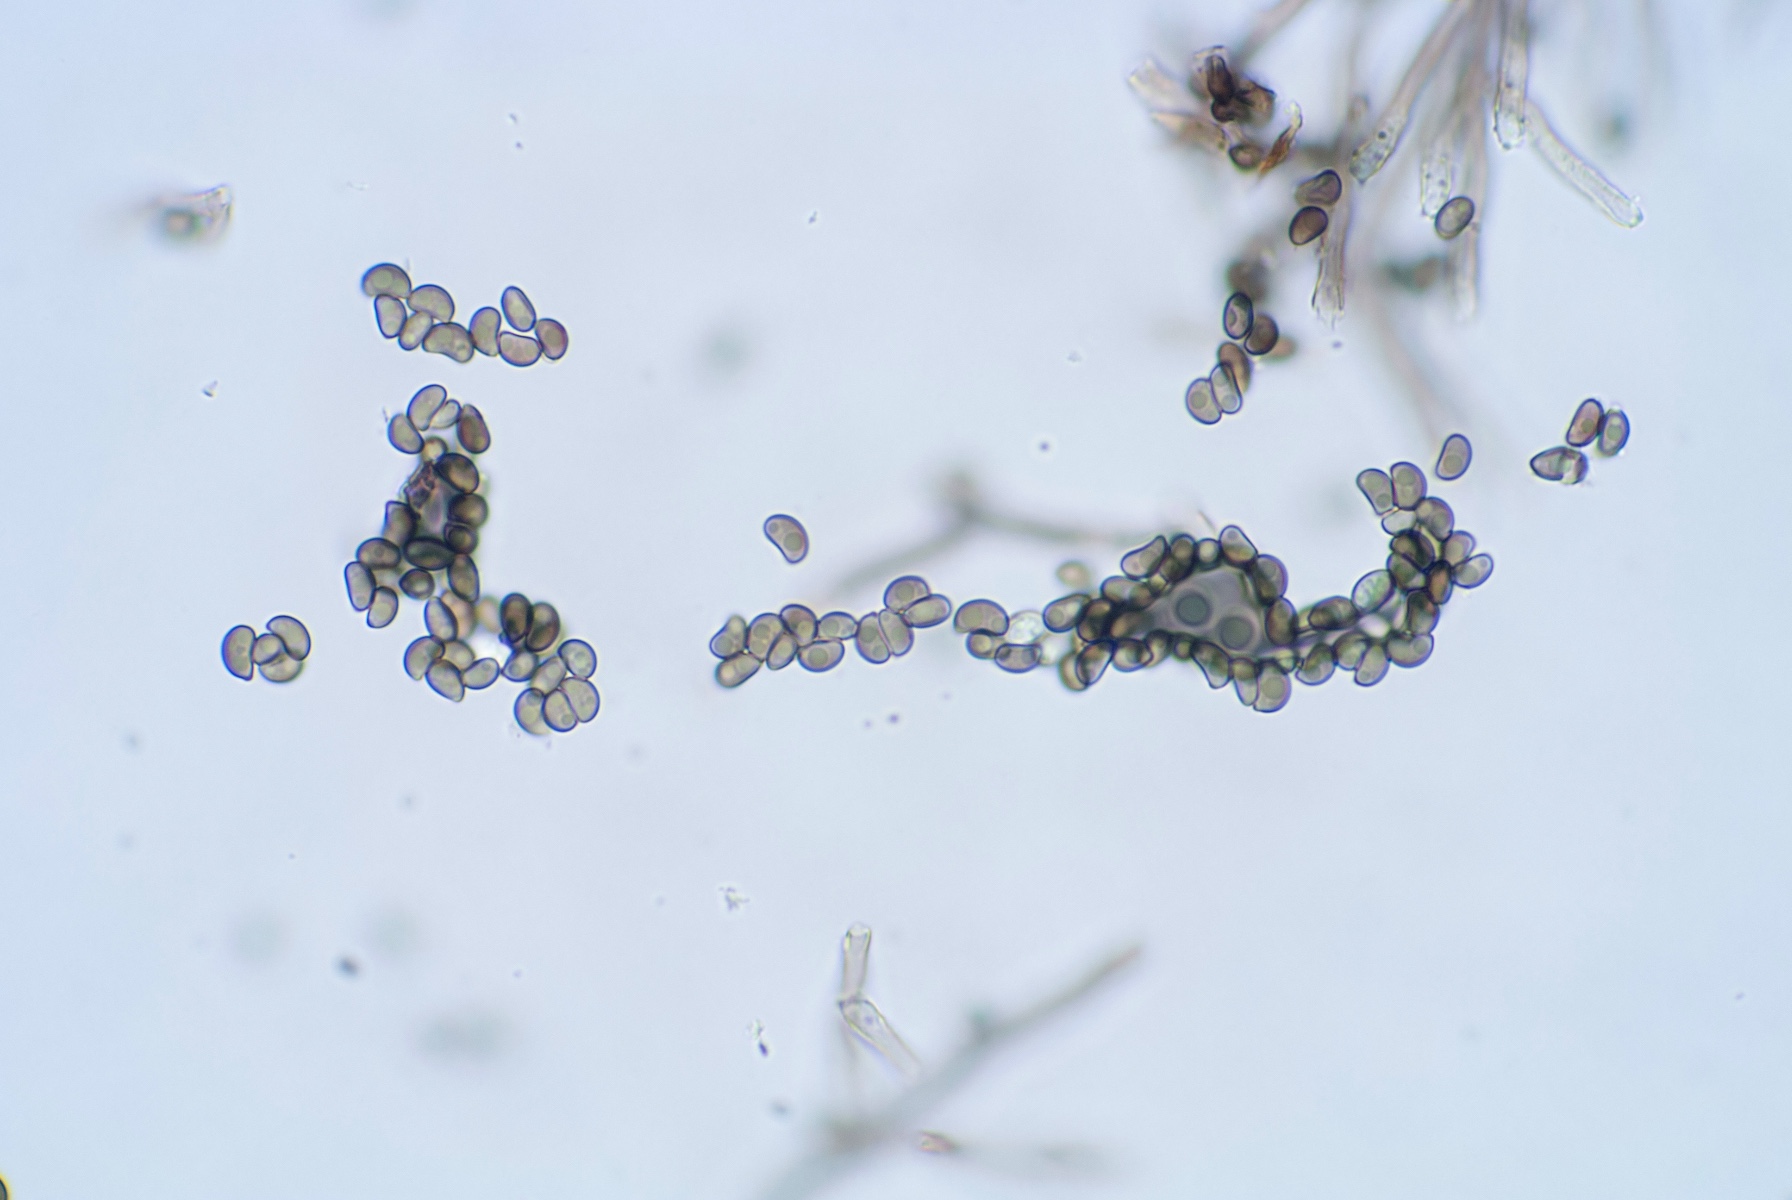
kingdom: Fungi
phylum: Ascomycota
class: Sordariomycetes
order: Xylariales
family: Xylariaceae
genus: Virgaria
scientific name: Virgaria nigra
